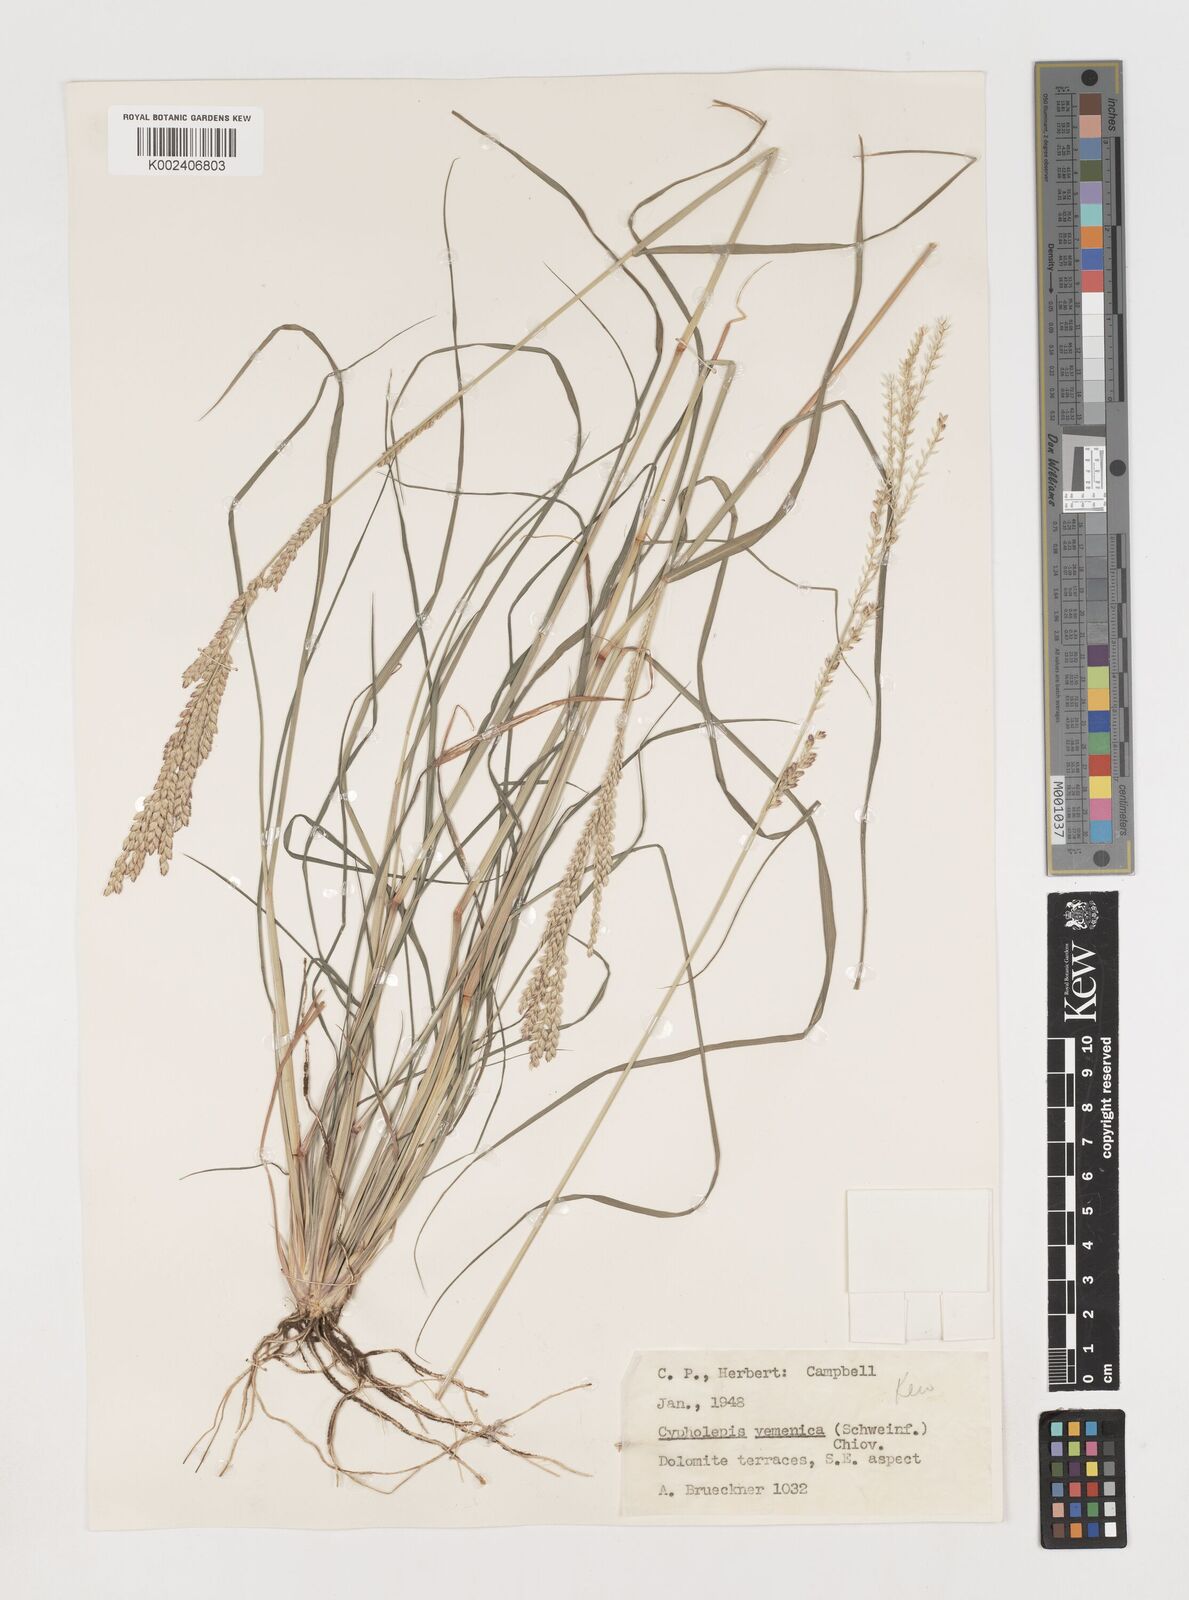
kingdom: Plantae
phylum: Tracheophyta
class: Liliopsida
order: Poales
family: Poaceae
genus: Disakisperma
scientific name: Disakisperma yemenicum
